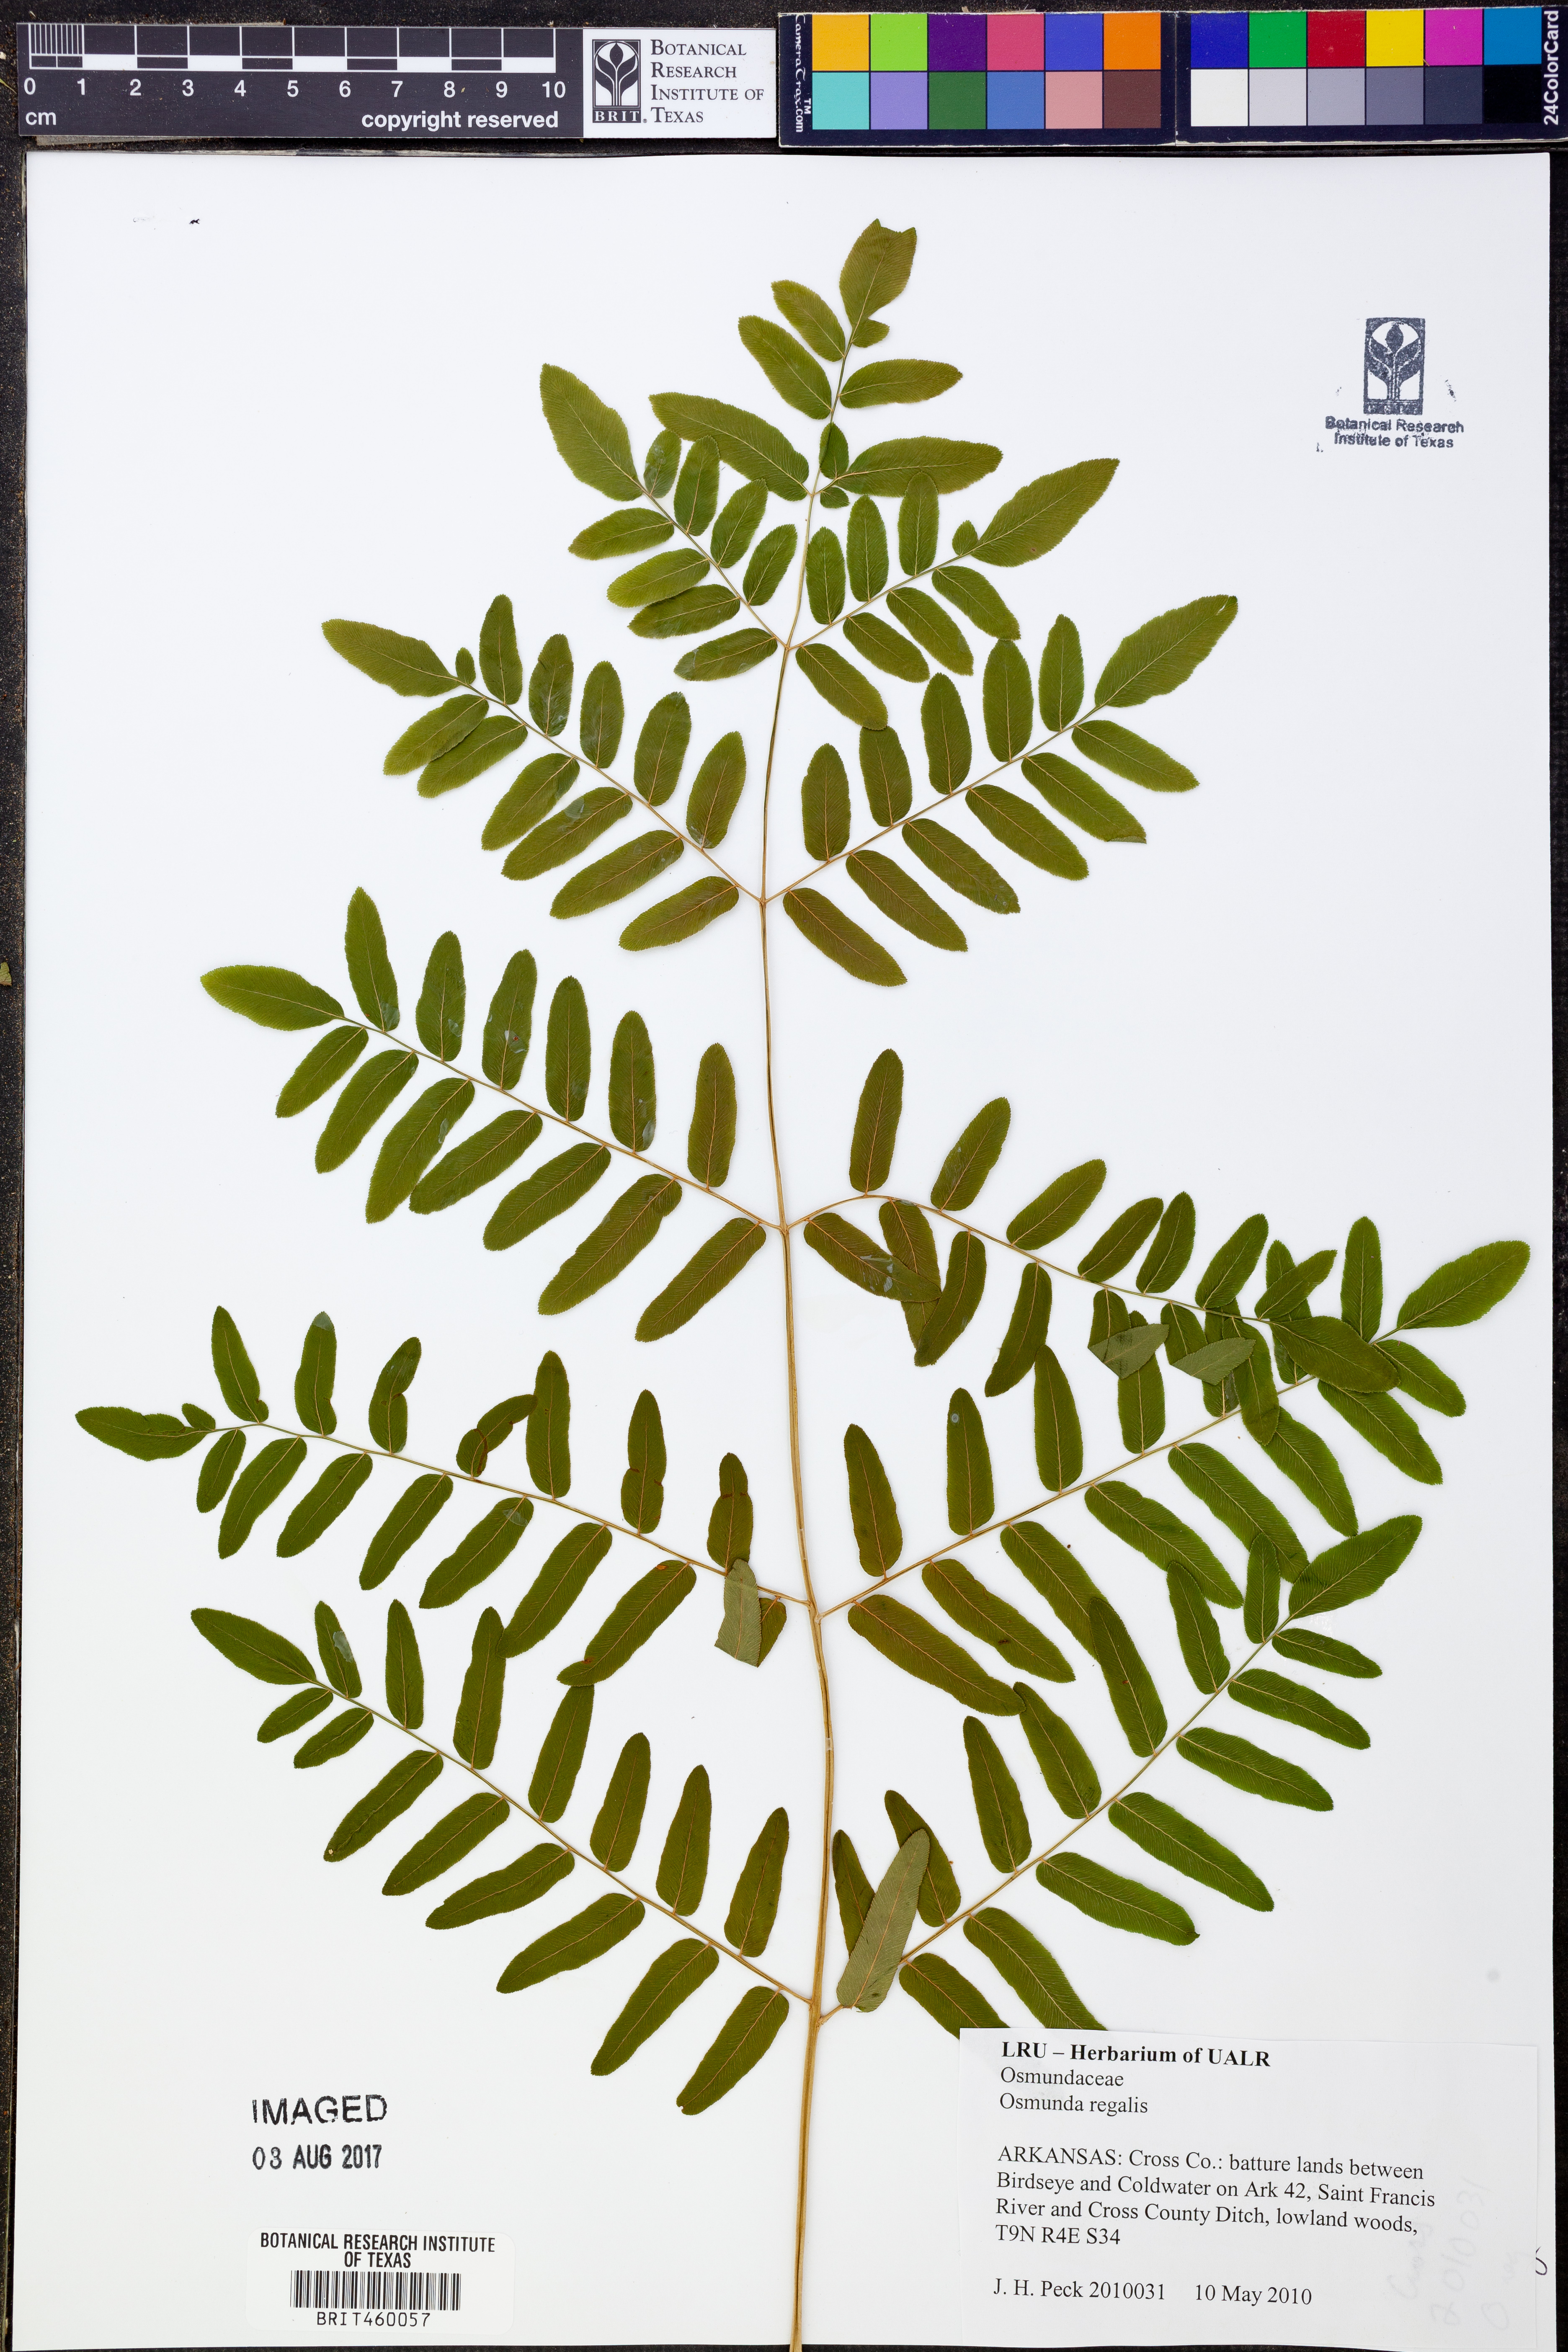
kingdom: Plantae
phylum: Tracheophyta
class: Polypodiopsida
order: Osmundales
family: Osmundaceae
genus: Osmunda
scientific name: Osmunda regalis
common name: Royal fern
